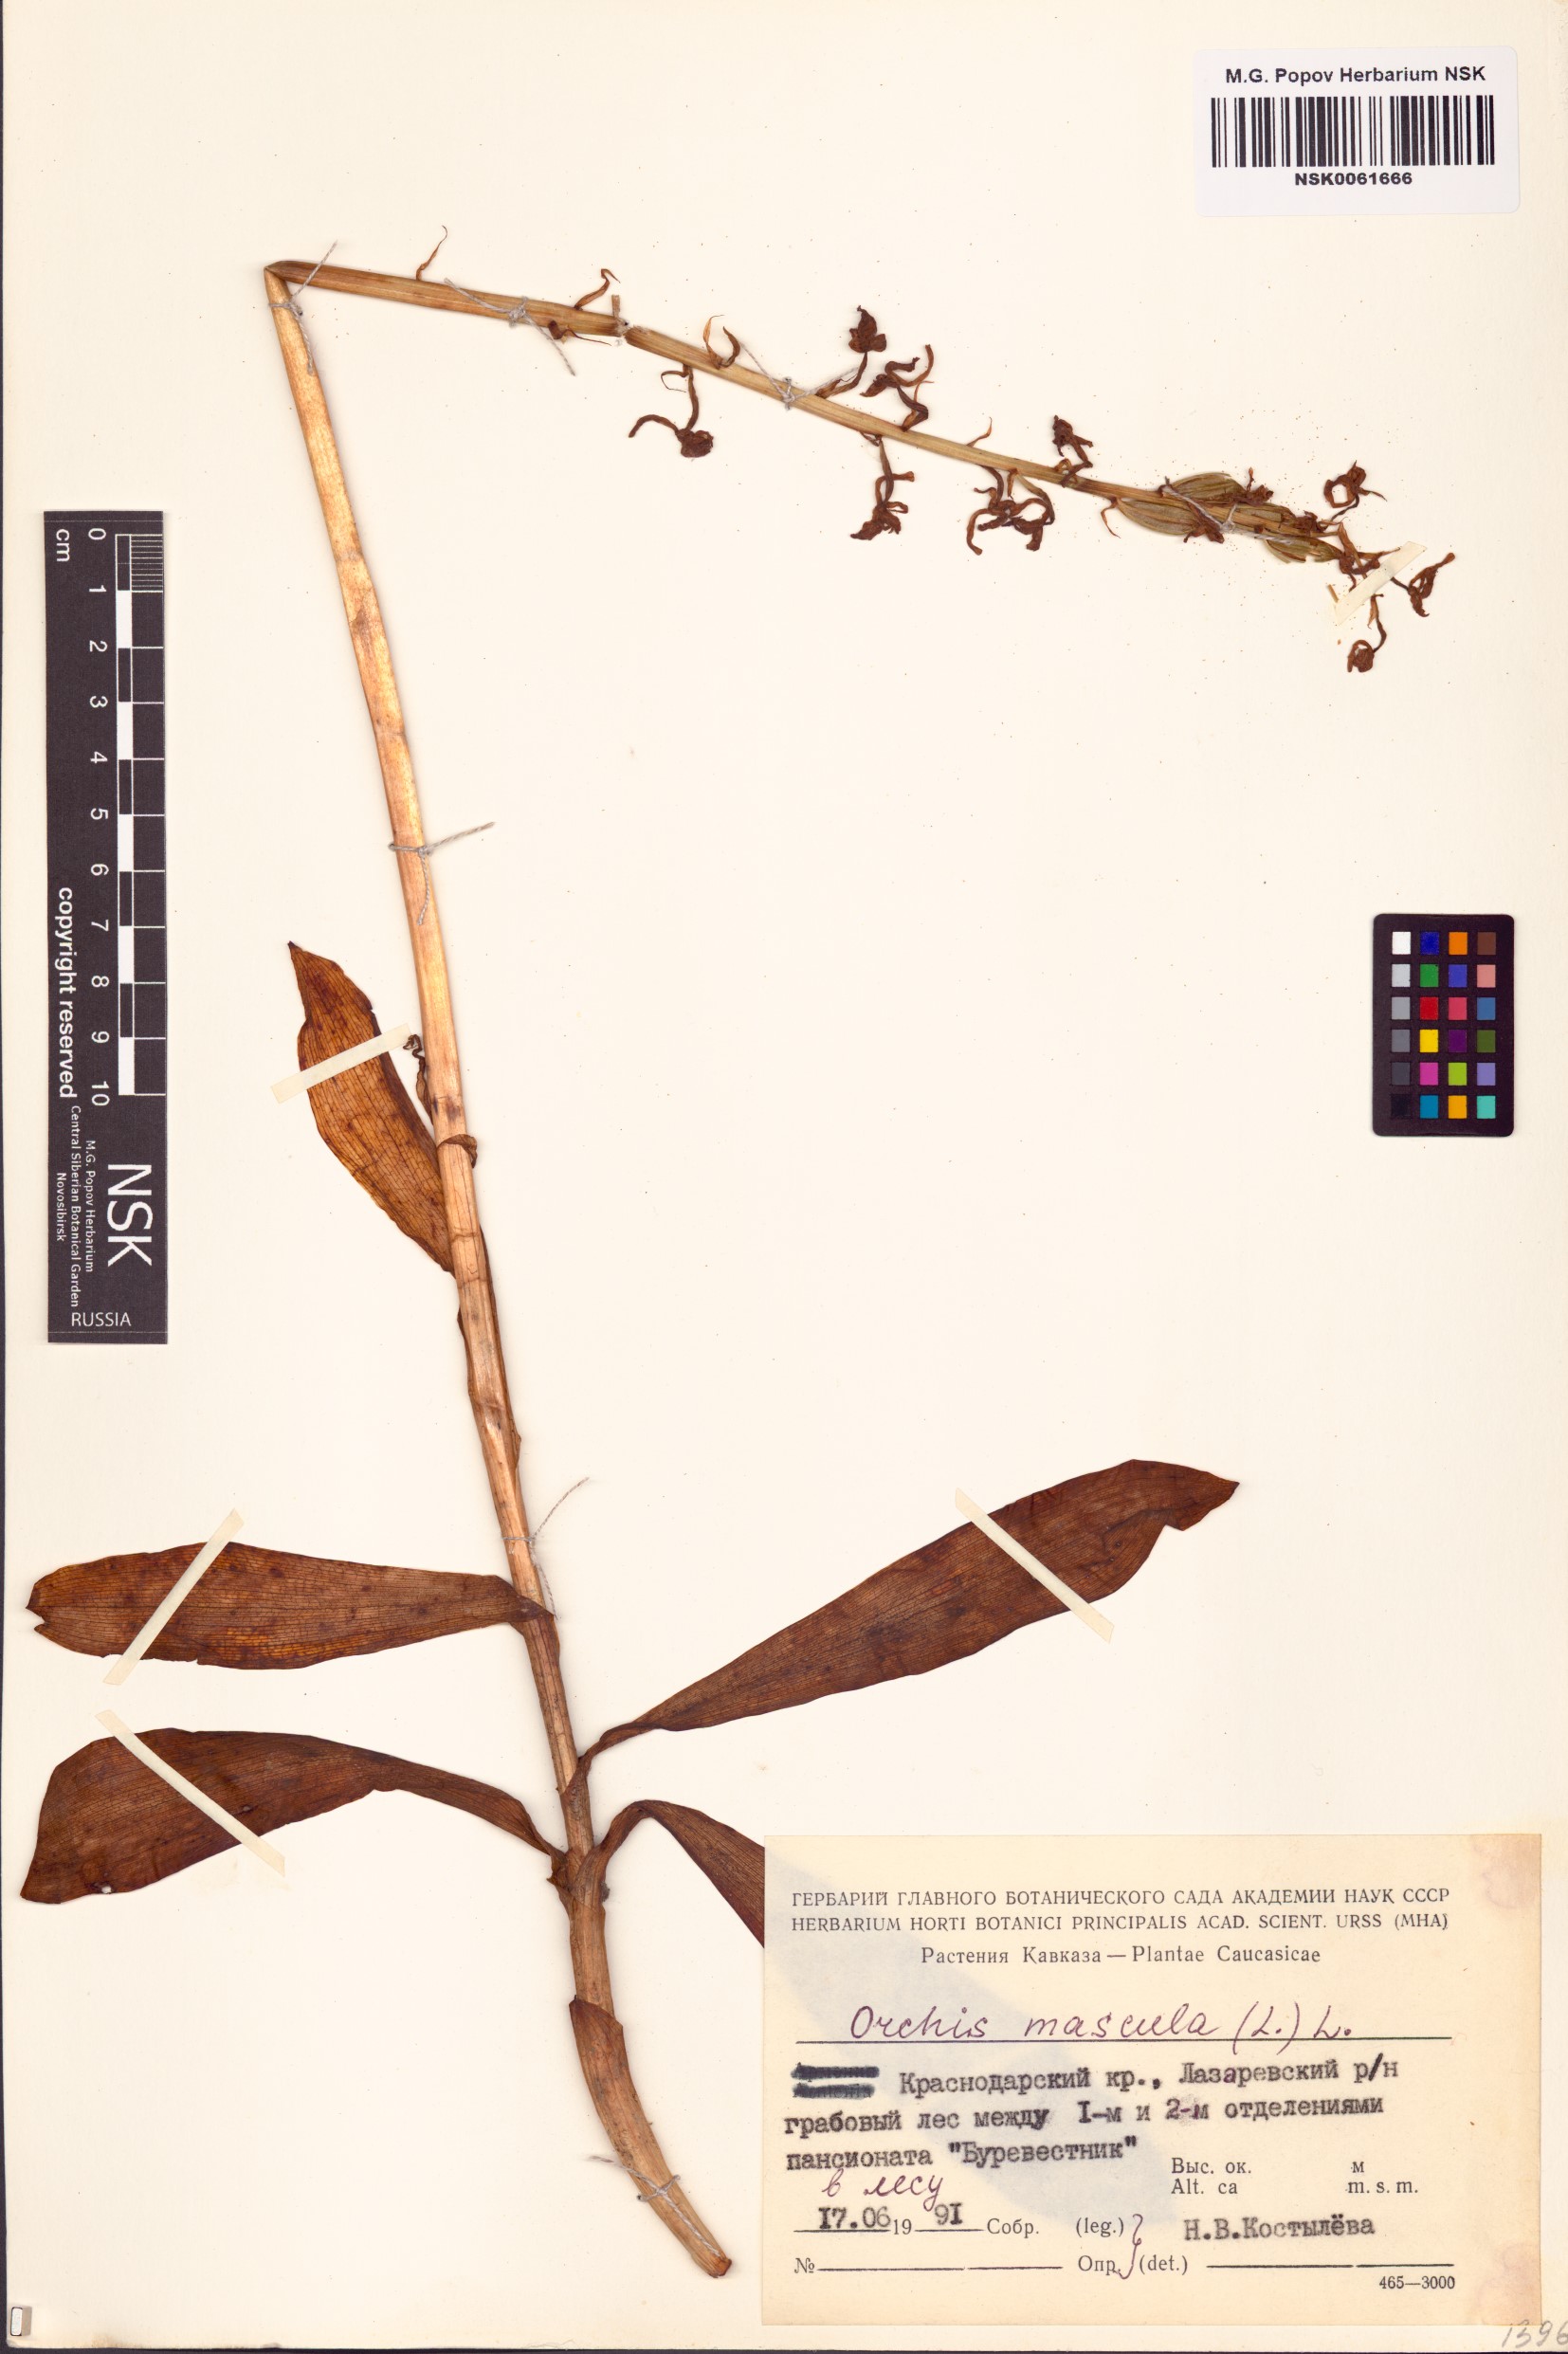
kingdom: Plantae
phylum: Tracheophyta
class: Liliopsida
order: Asparagales
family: Orchidaceae
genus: Orchis
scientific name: Orchis mascula
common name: Early-purple orchid
